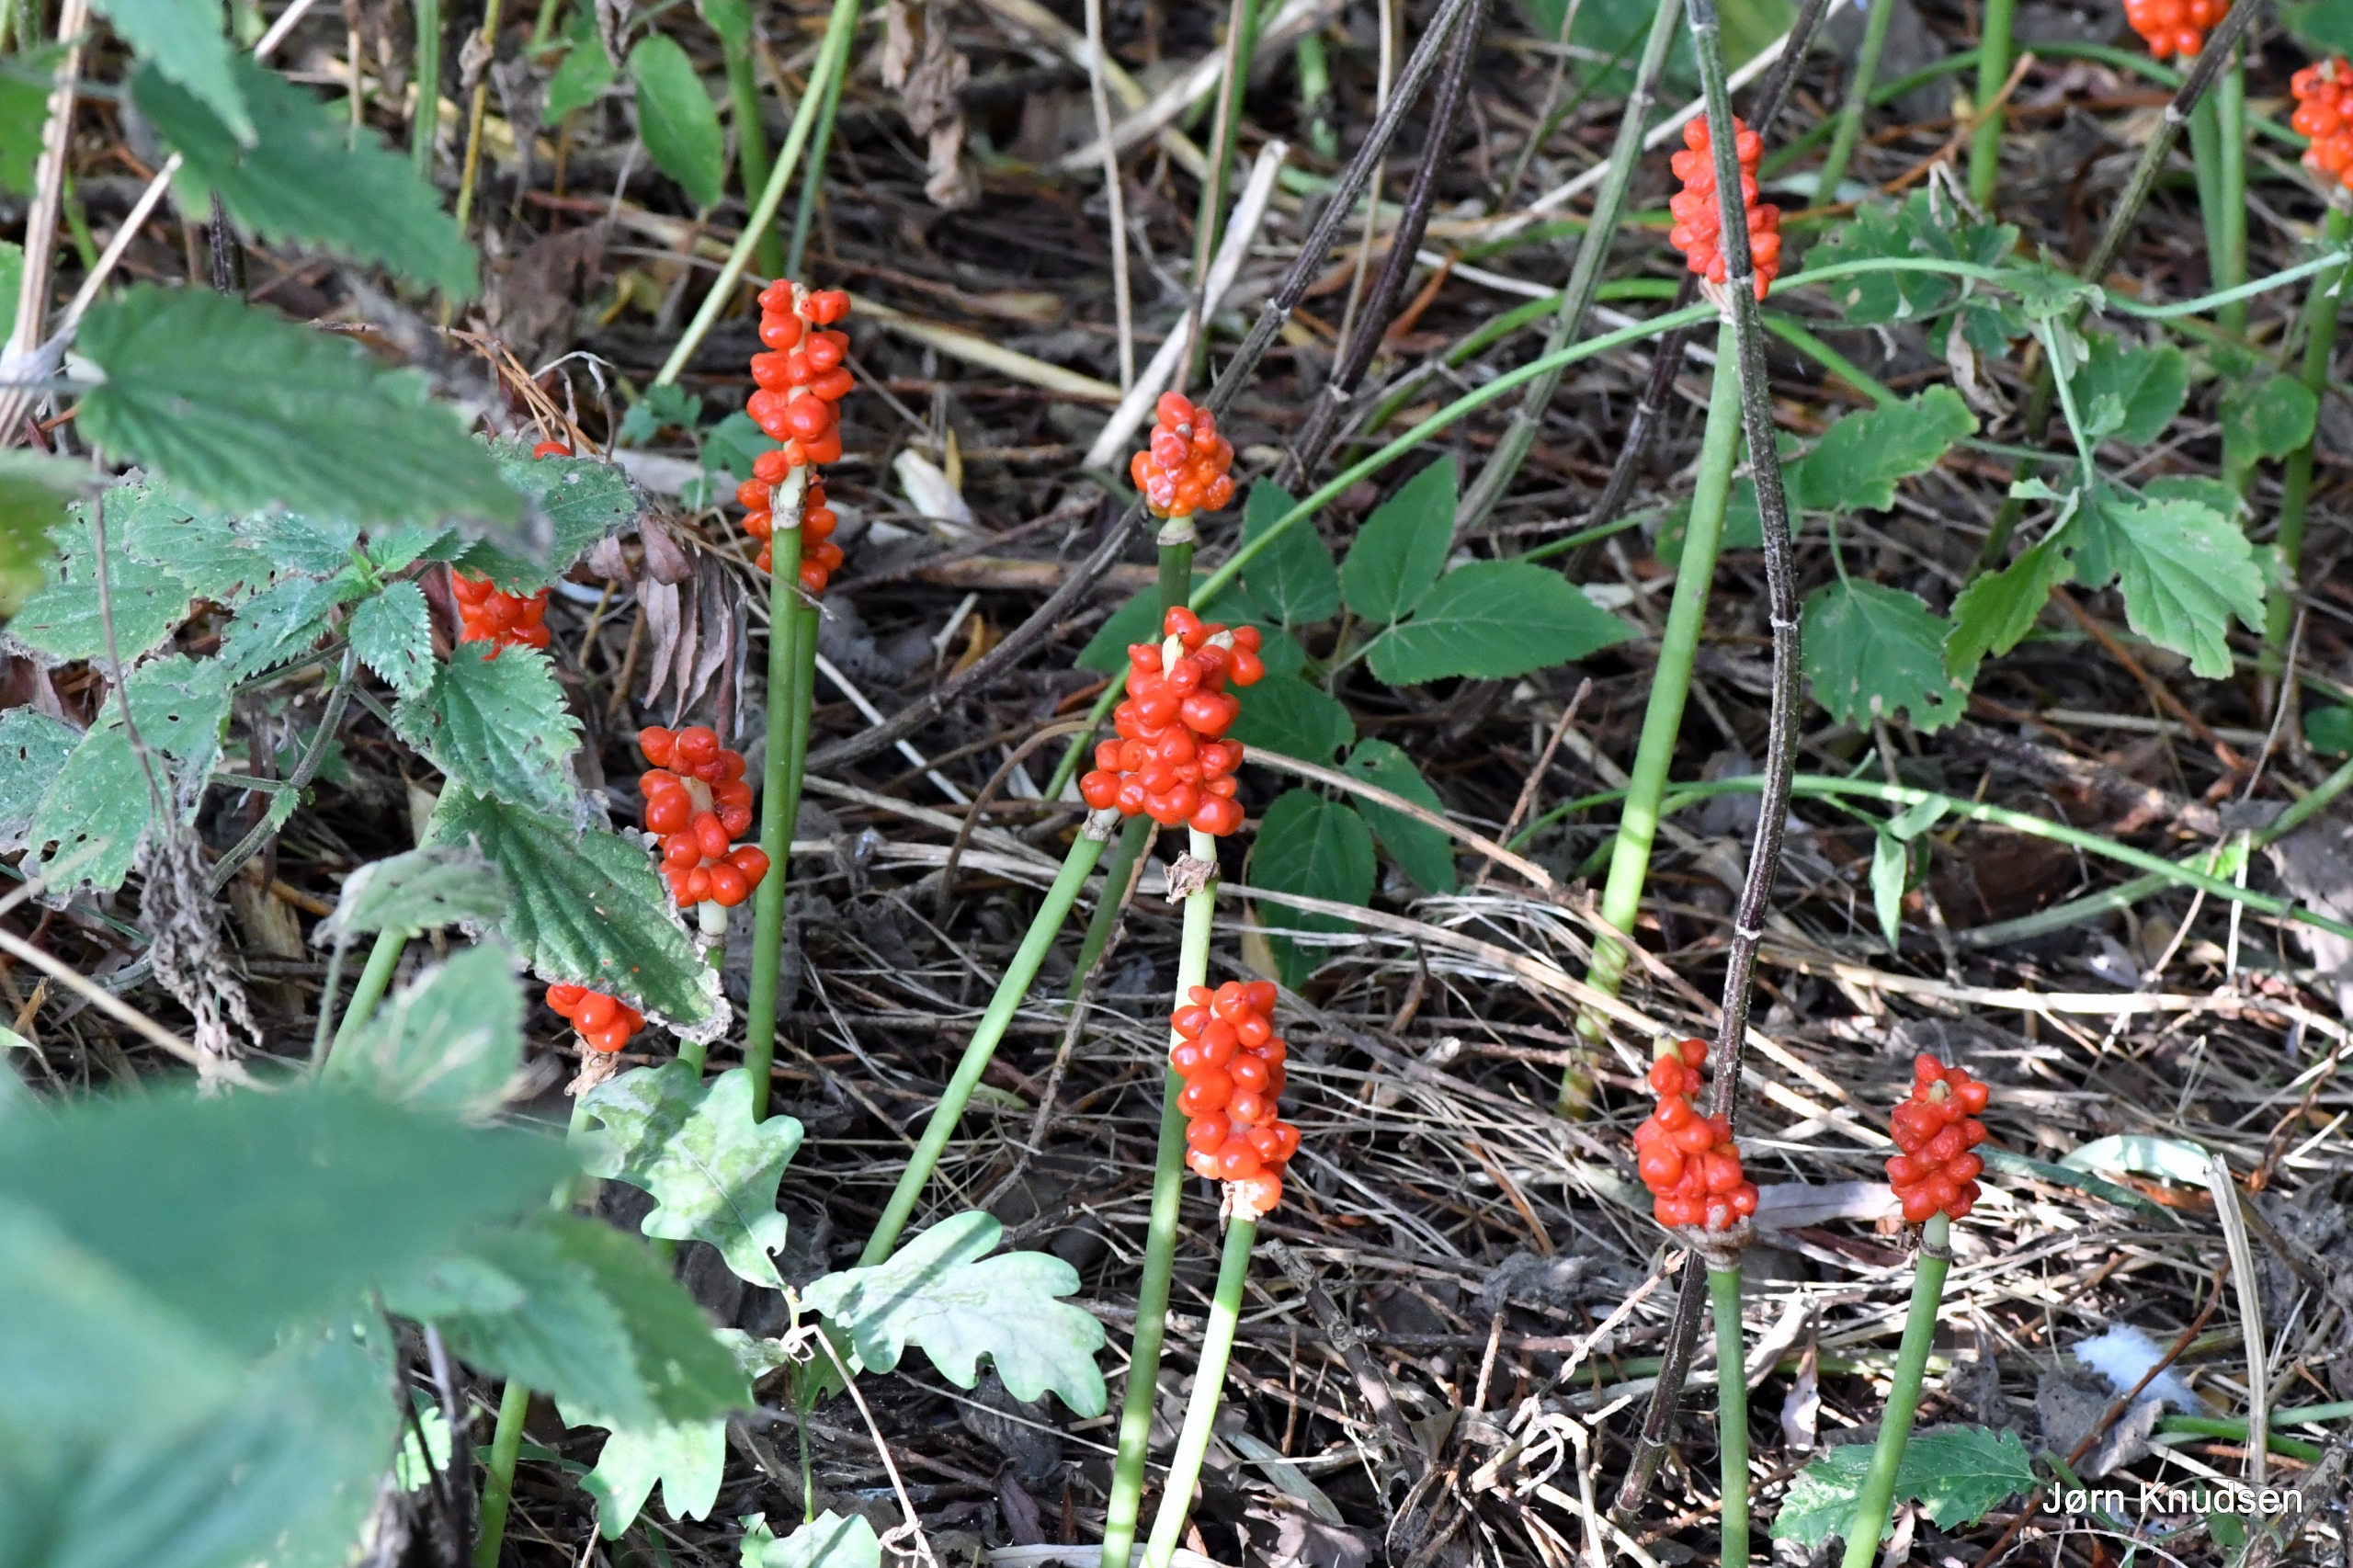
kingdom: Plantae
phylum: Tracheophyta
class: Liliopsida
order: Alismatales
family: Araceae
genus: Arum
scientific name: Arum
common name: Arumslægten
